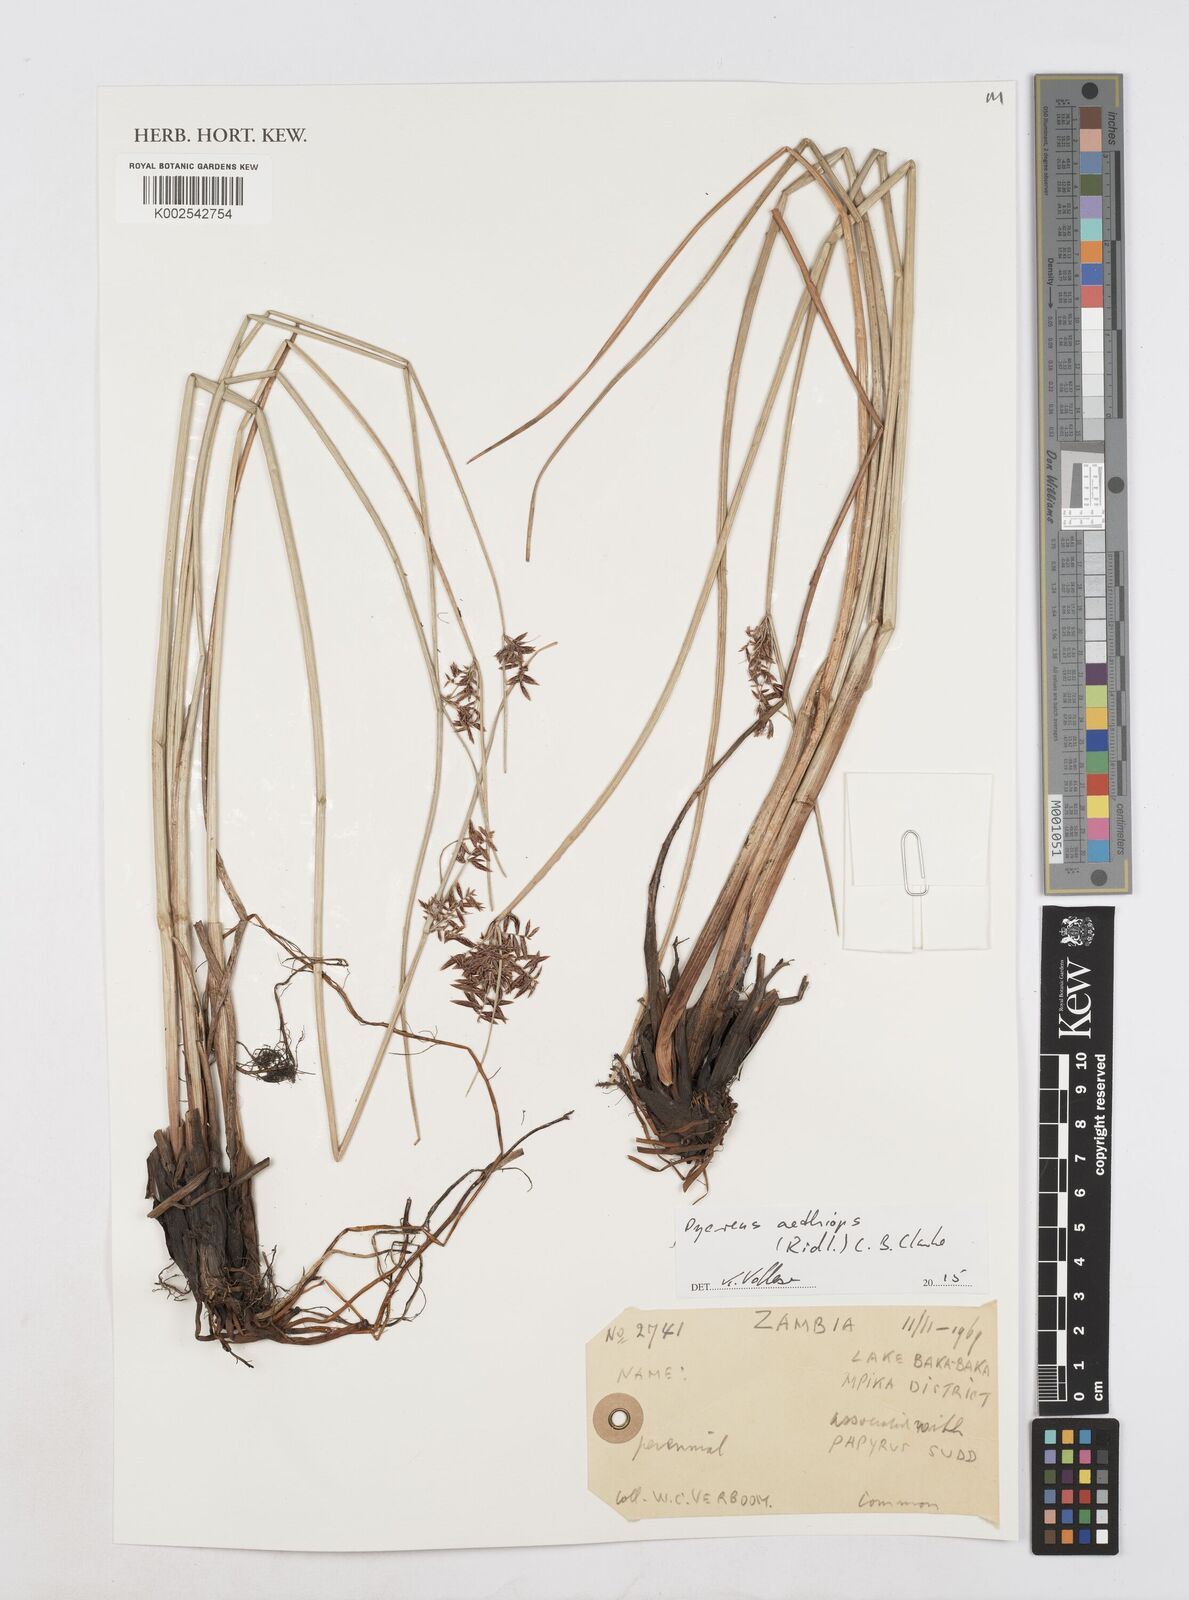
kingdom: Plantae
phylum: Tracheophyta
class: Liliopsida
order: Poales
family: Cyperaceae
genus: Cyperus
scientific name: Cyperus aethiops
